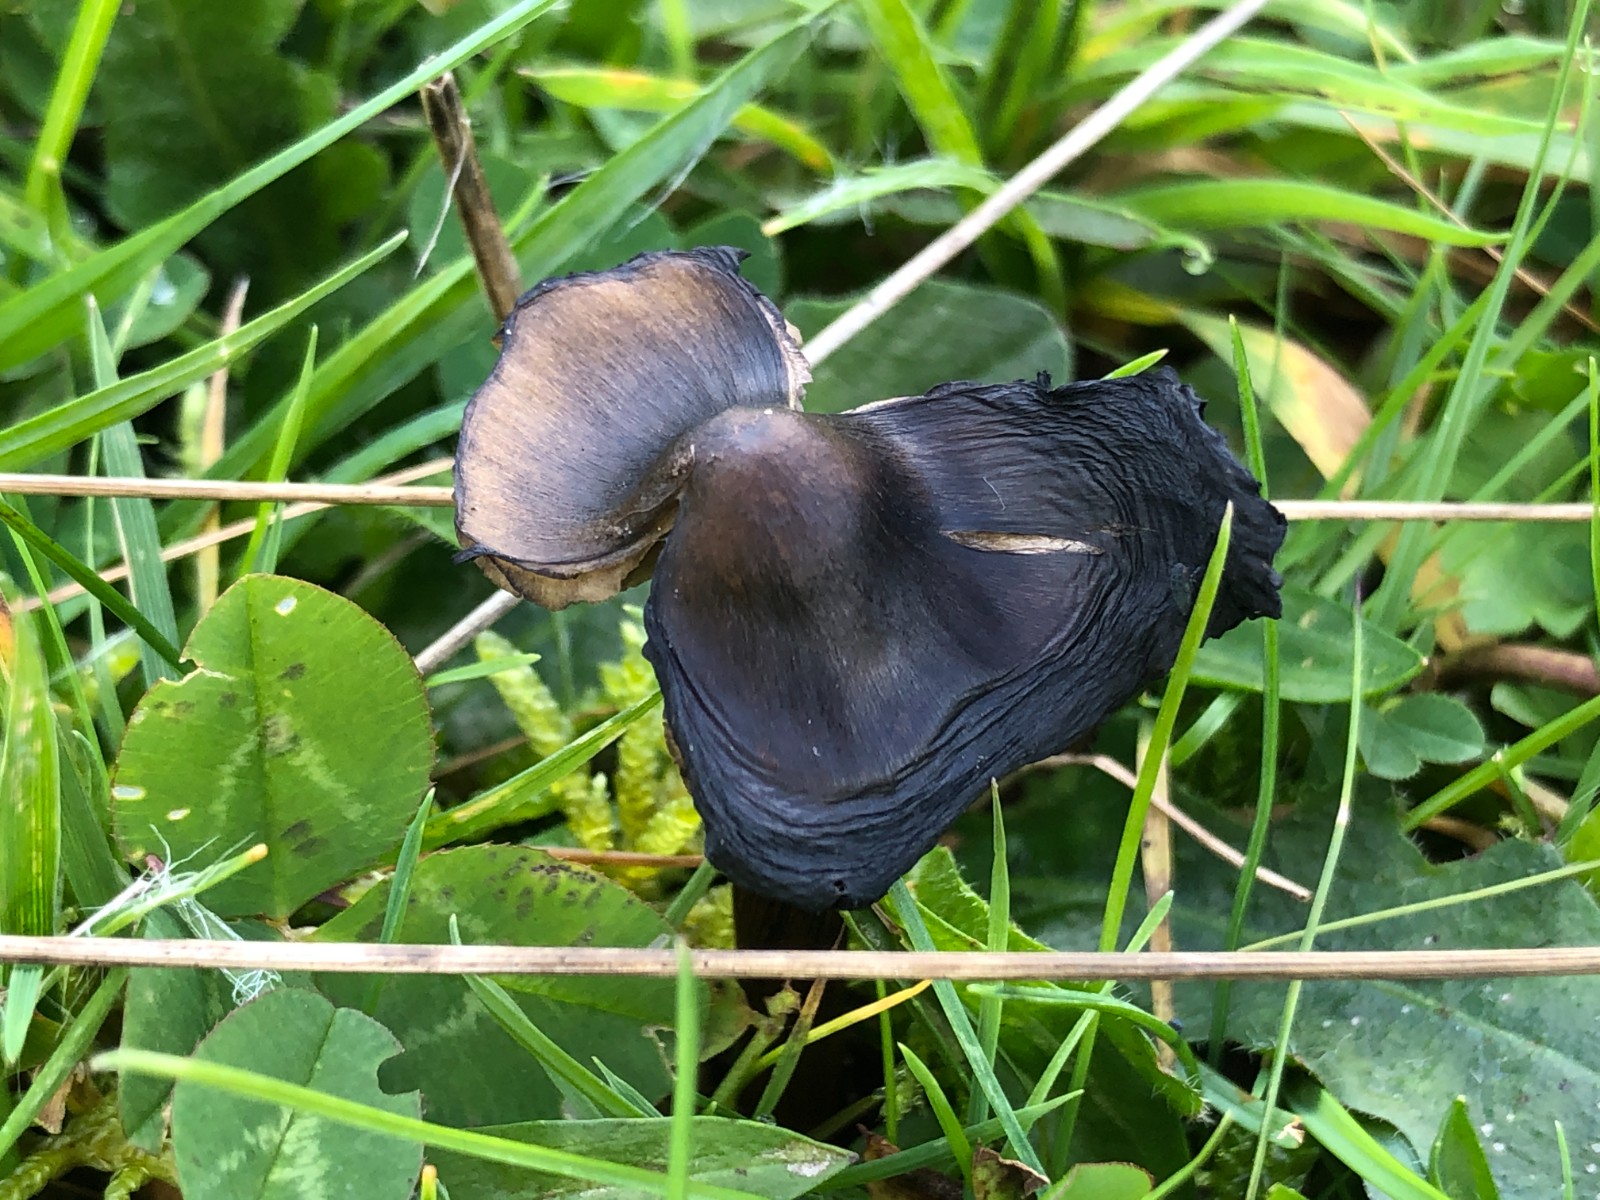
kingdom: Fungi
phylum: Basidiomycota
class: Agaricomycetes
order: Agaricales
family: Hygrophoraceae
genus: Hygrocybe
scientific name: Hygrocybe conica
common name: kegle-vokshat
